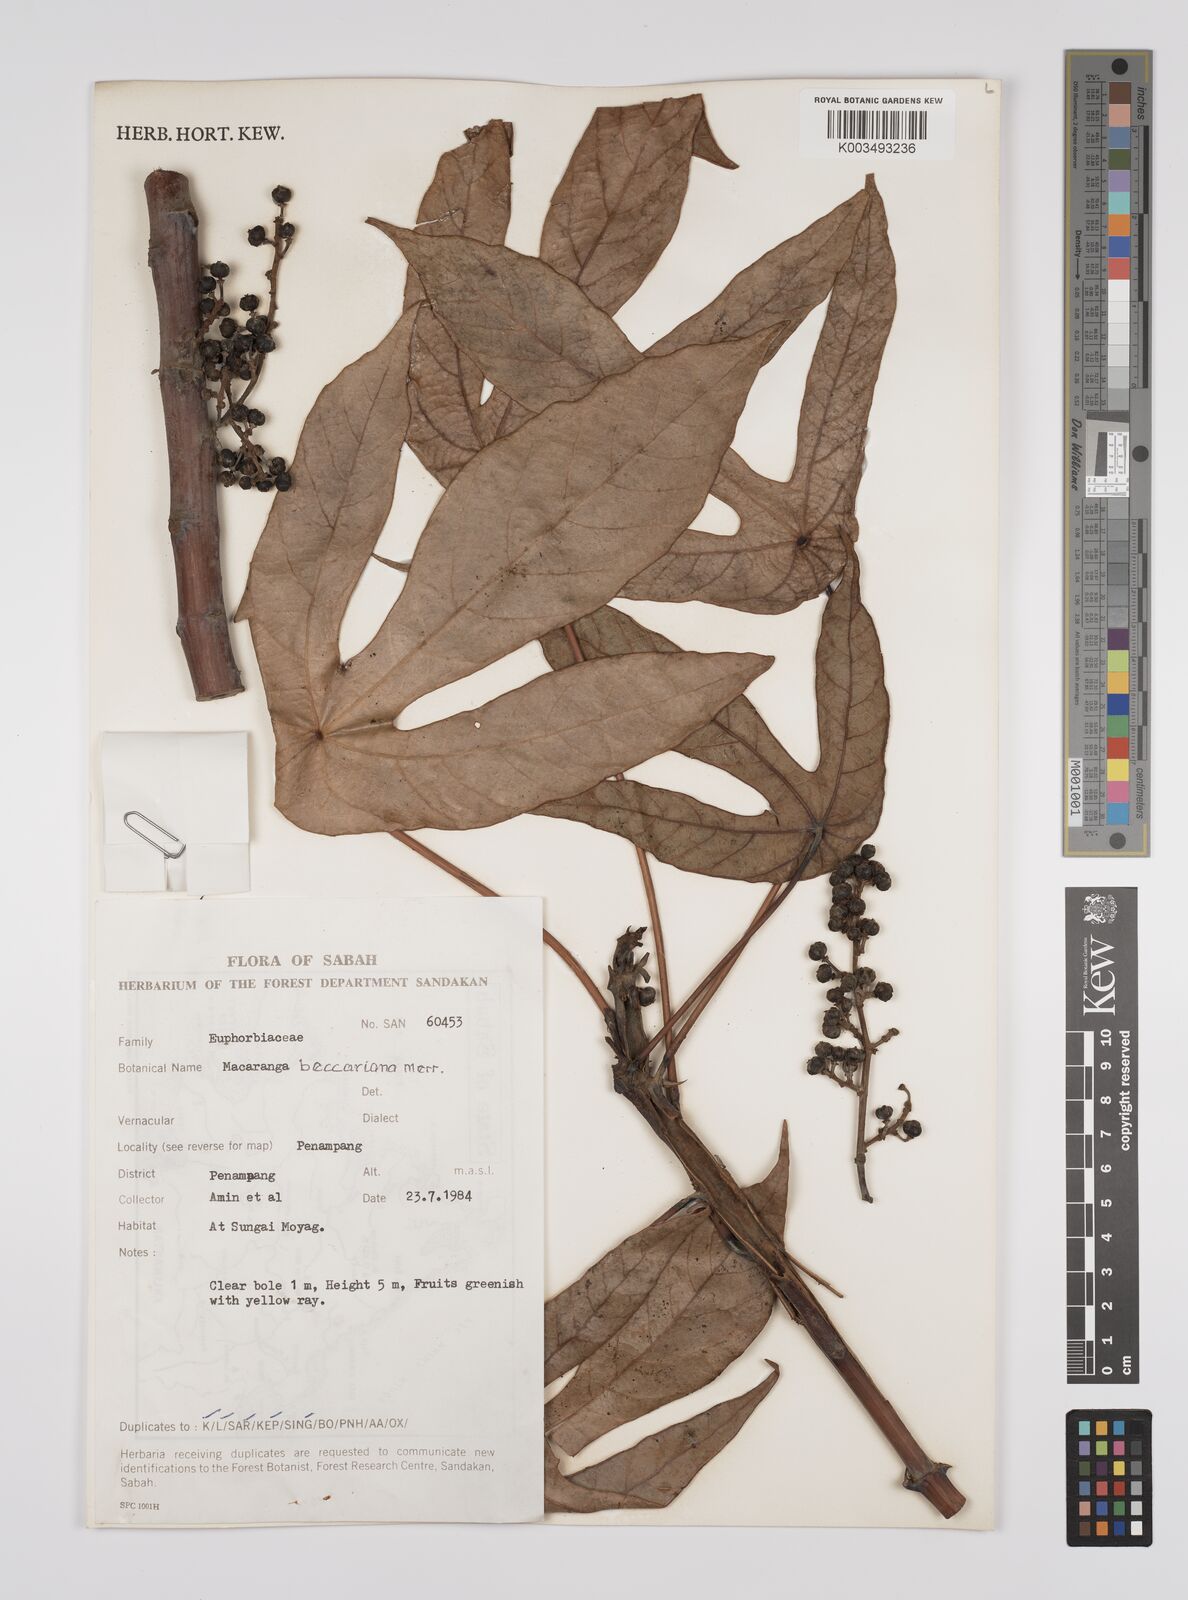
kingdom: Plantae
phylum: Tracheophyta
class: Magnoliopsida
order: Malpighiales
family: Euphorbiaceae
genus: Macaranga
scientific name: Macaranga beccariana
